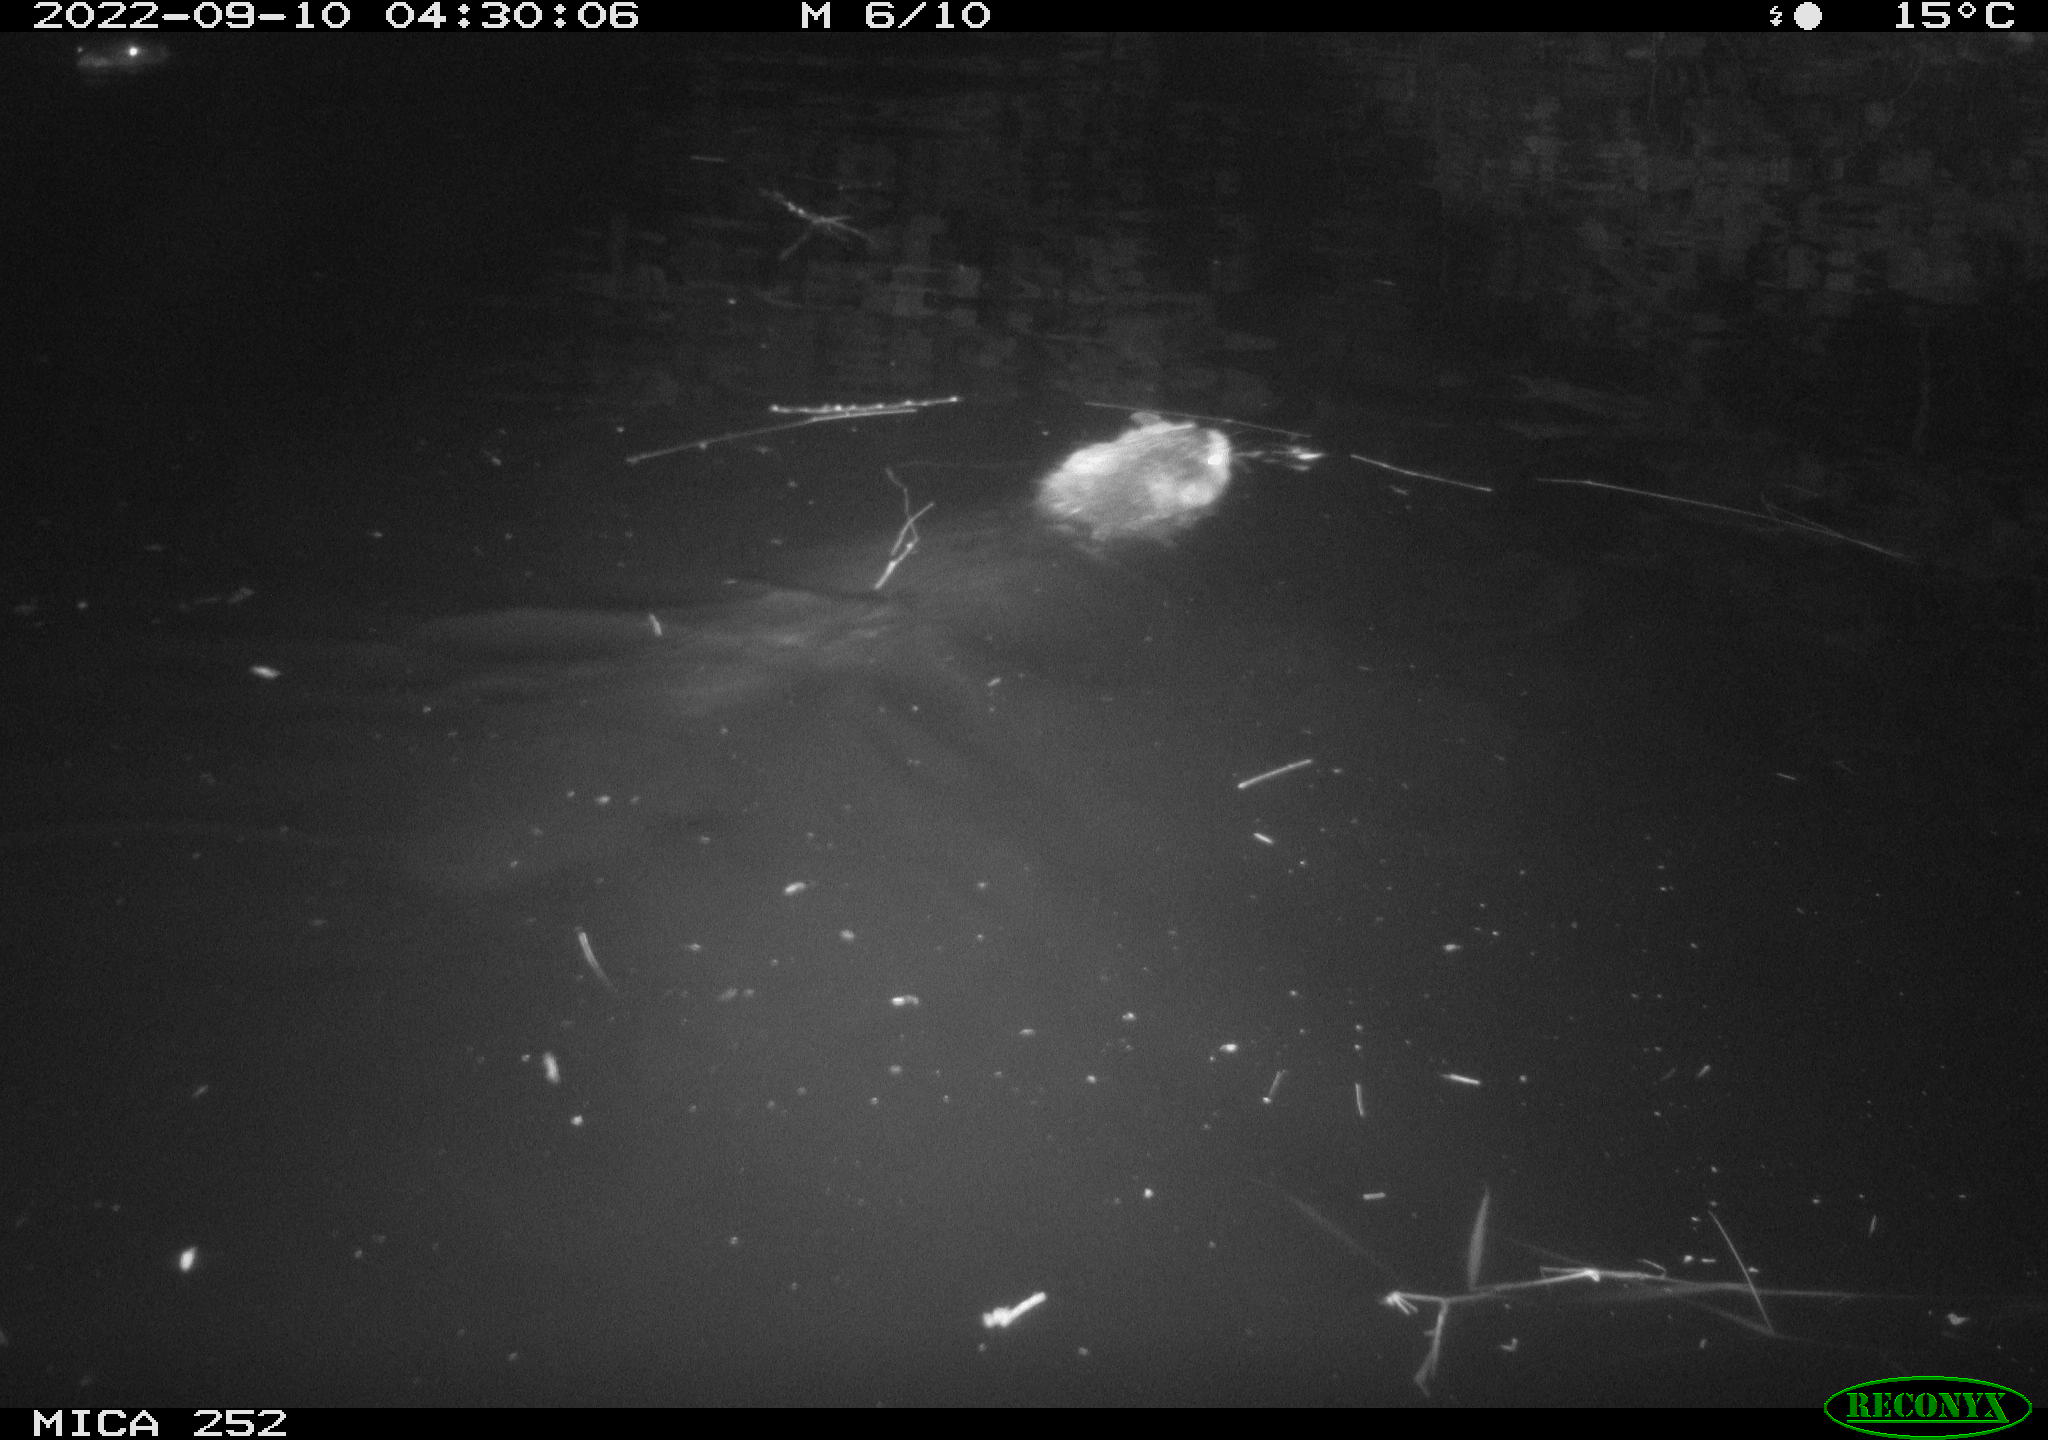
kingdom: Animalia
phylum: Chordata
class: Mammalia
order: Rodentia
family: Castoridae
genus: Castor
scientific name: Castor fiber
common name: Eurasian beaver
